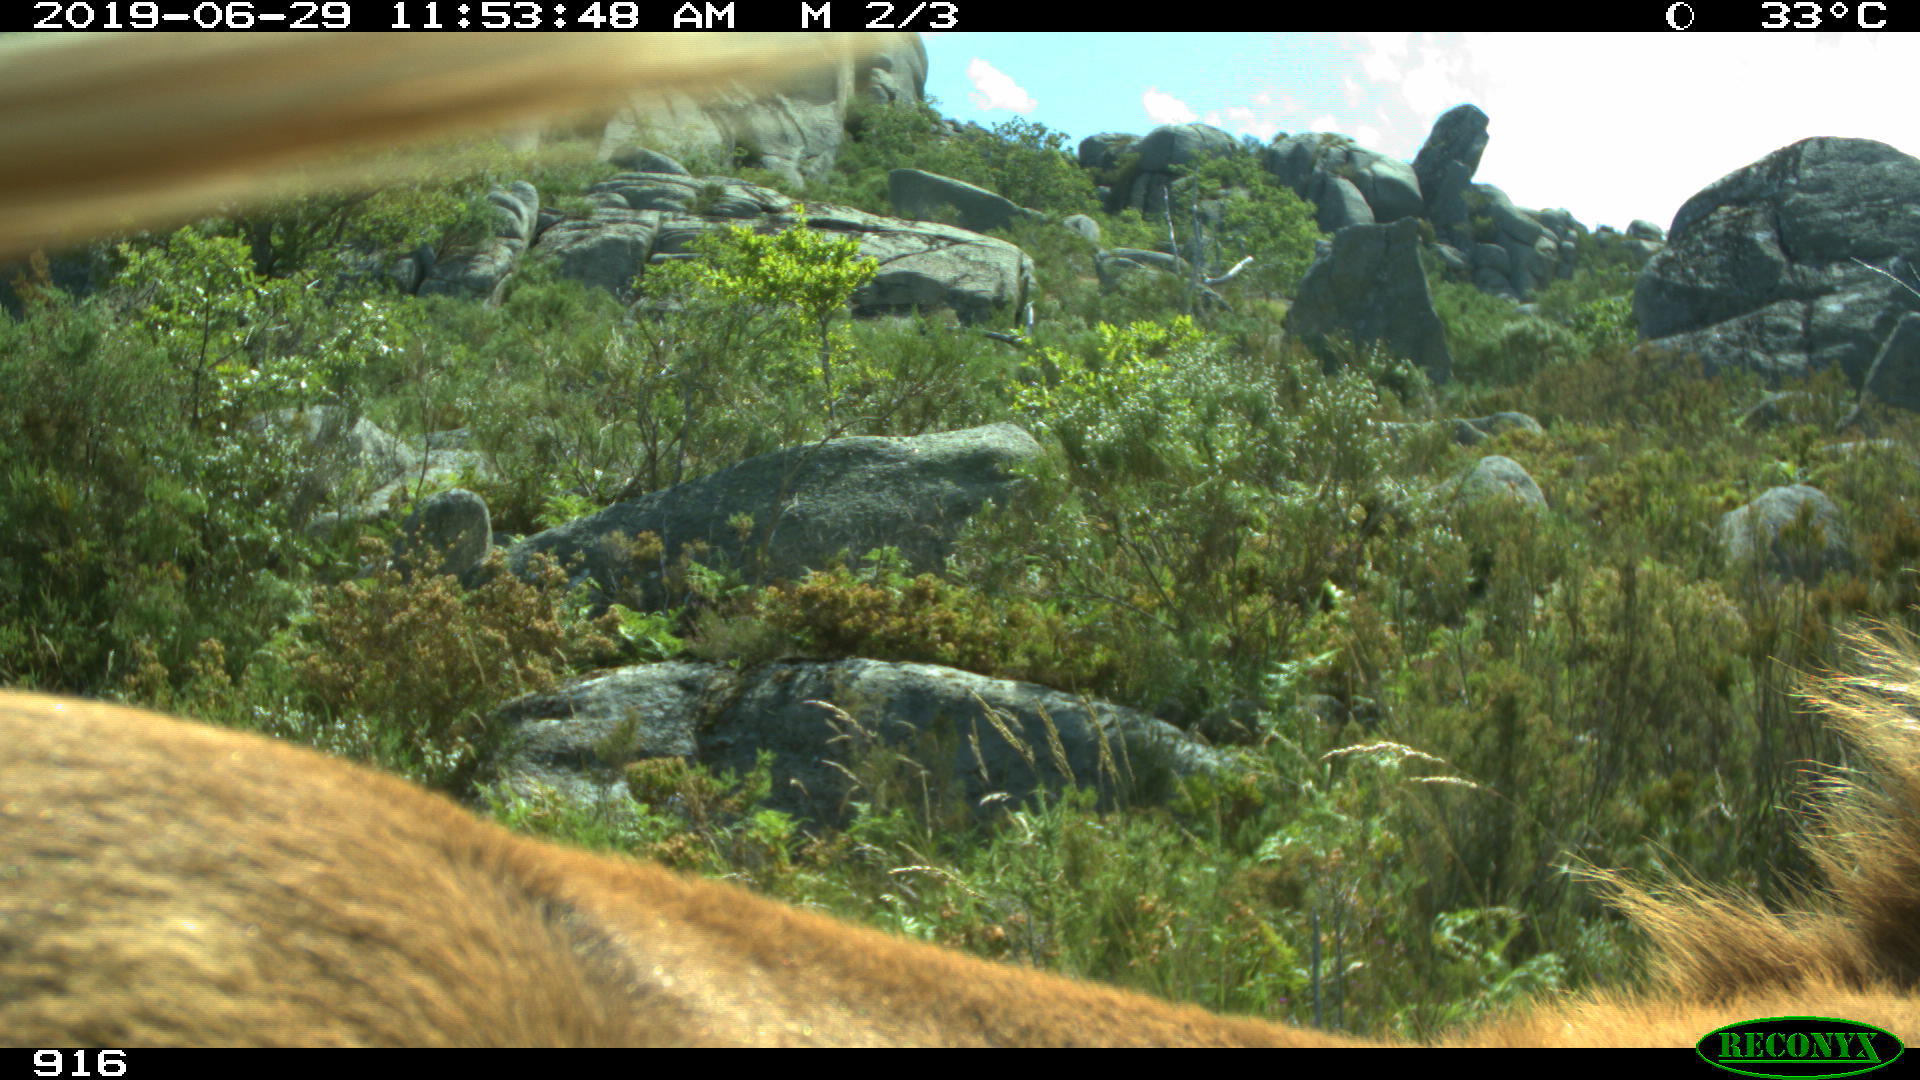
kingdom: Animalia
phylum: Chordata
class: Mammalia
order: Perissodactyla
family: Equidae
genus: Equus
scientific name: Equus caballus
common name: Horse
